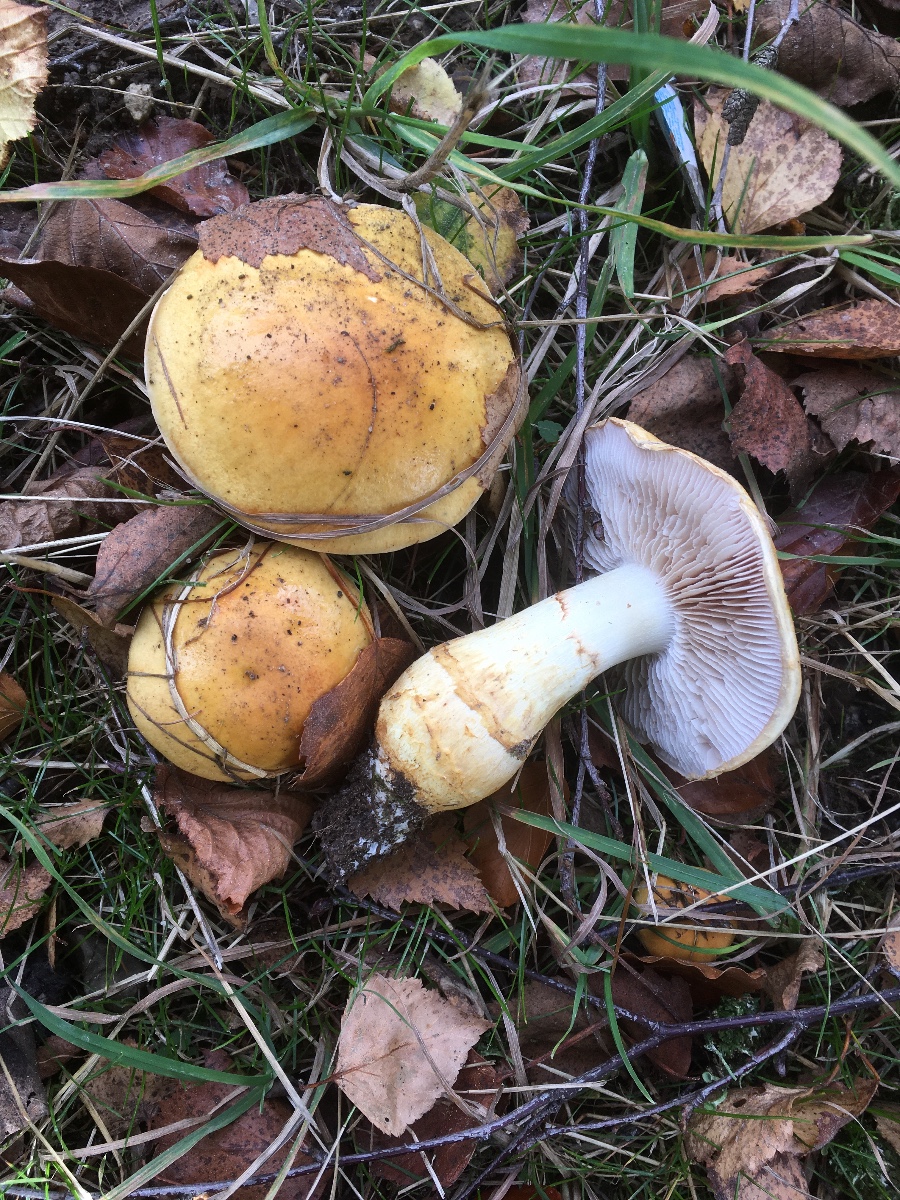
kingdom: Fungi
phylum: Basidiomycota
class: Agaricomycetes
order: Agaricales
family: Cortinariaceae
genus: Phlegmacium
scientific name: Phlegmacium triumphans
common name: gulbæltet slørhat
